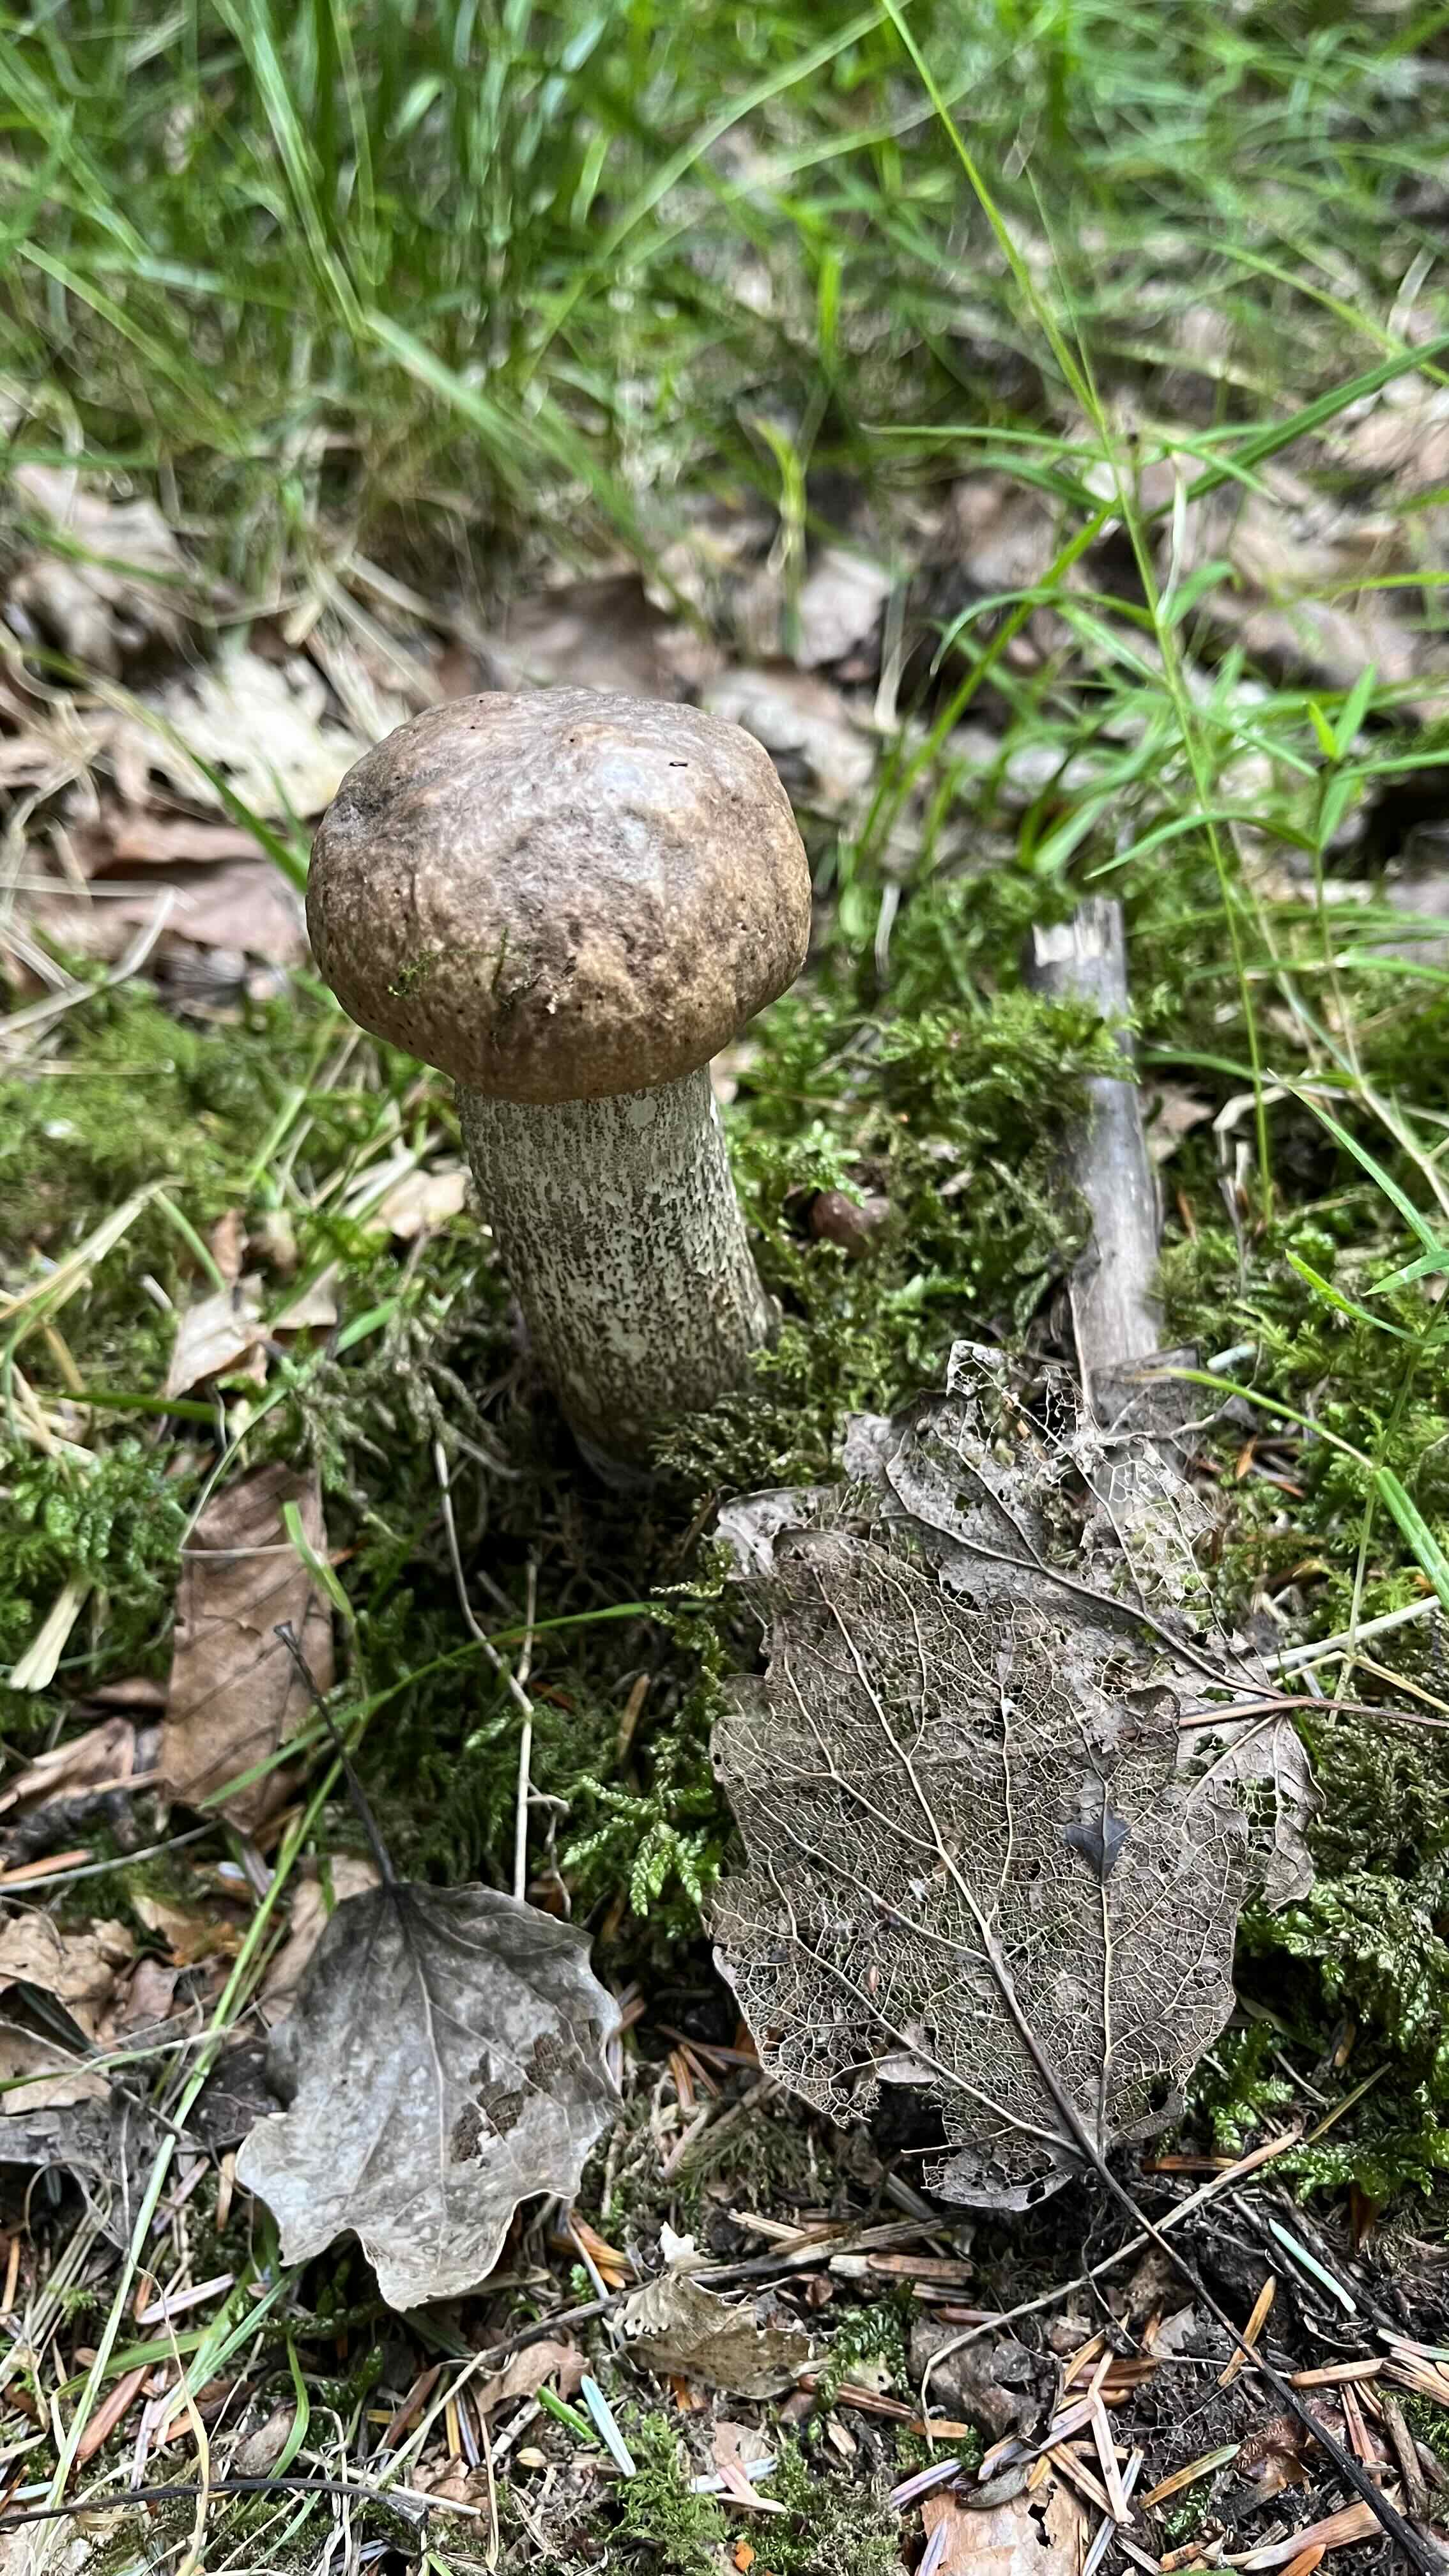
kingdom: Fungi
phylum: Basidiomycota
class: Agaricomycetes
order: Boletales
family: Boletaceae
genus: Leccinum
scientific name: Leccinum duriusculum
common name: poppel-skælrørhat
